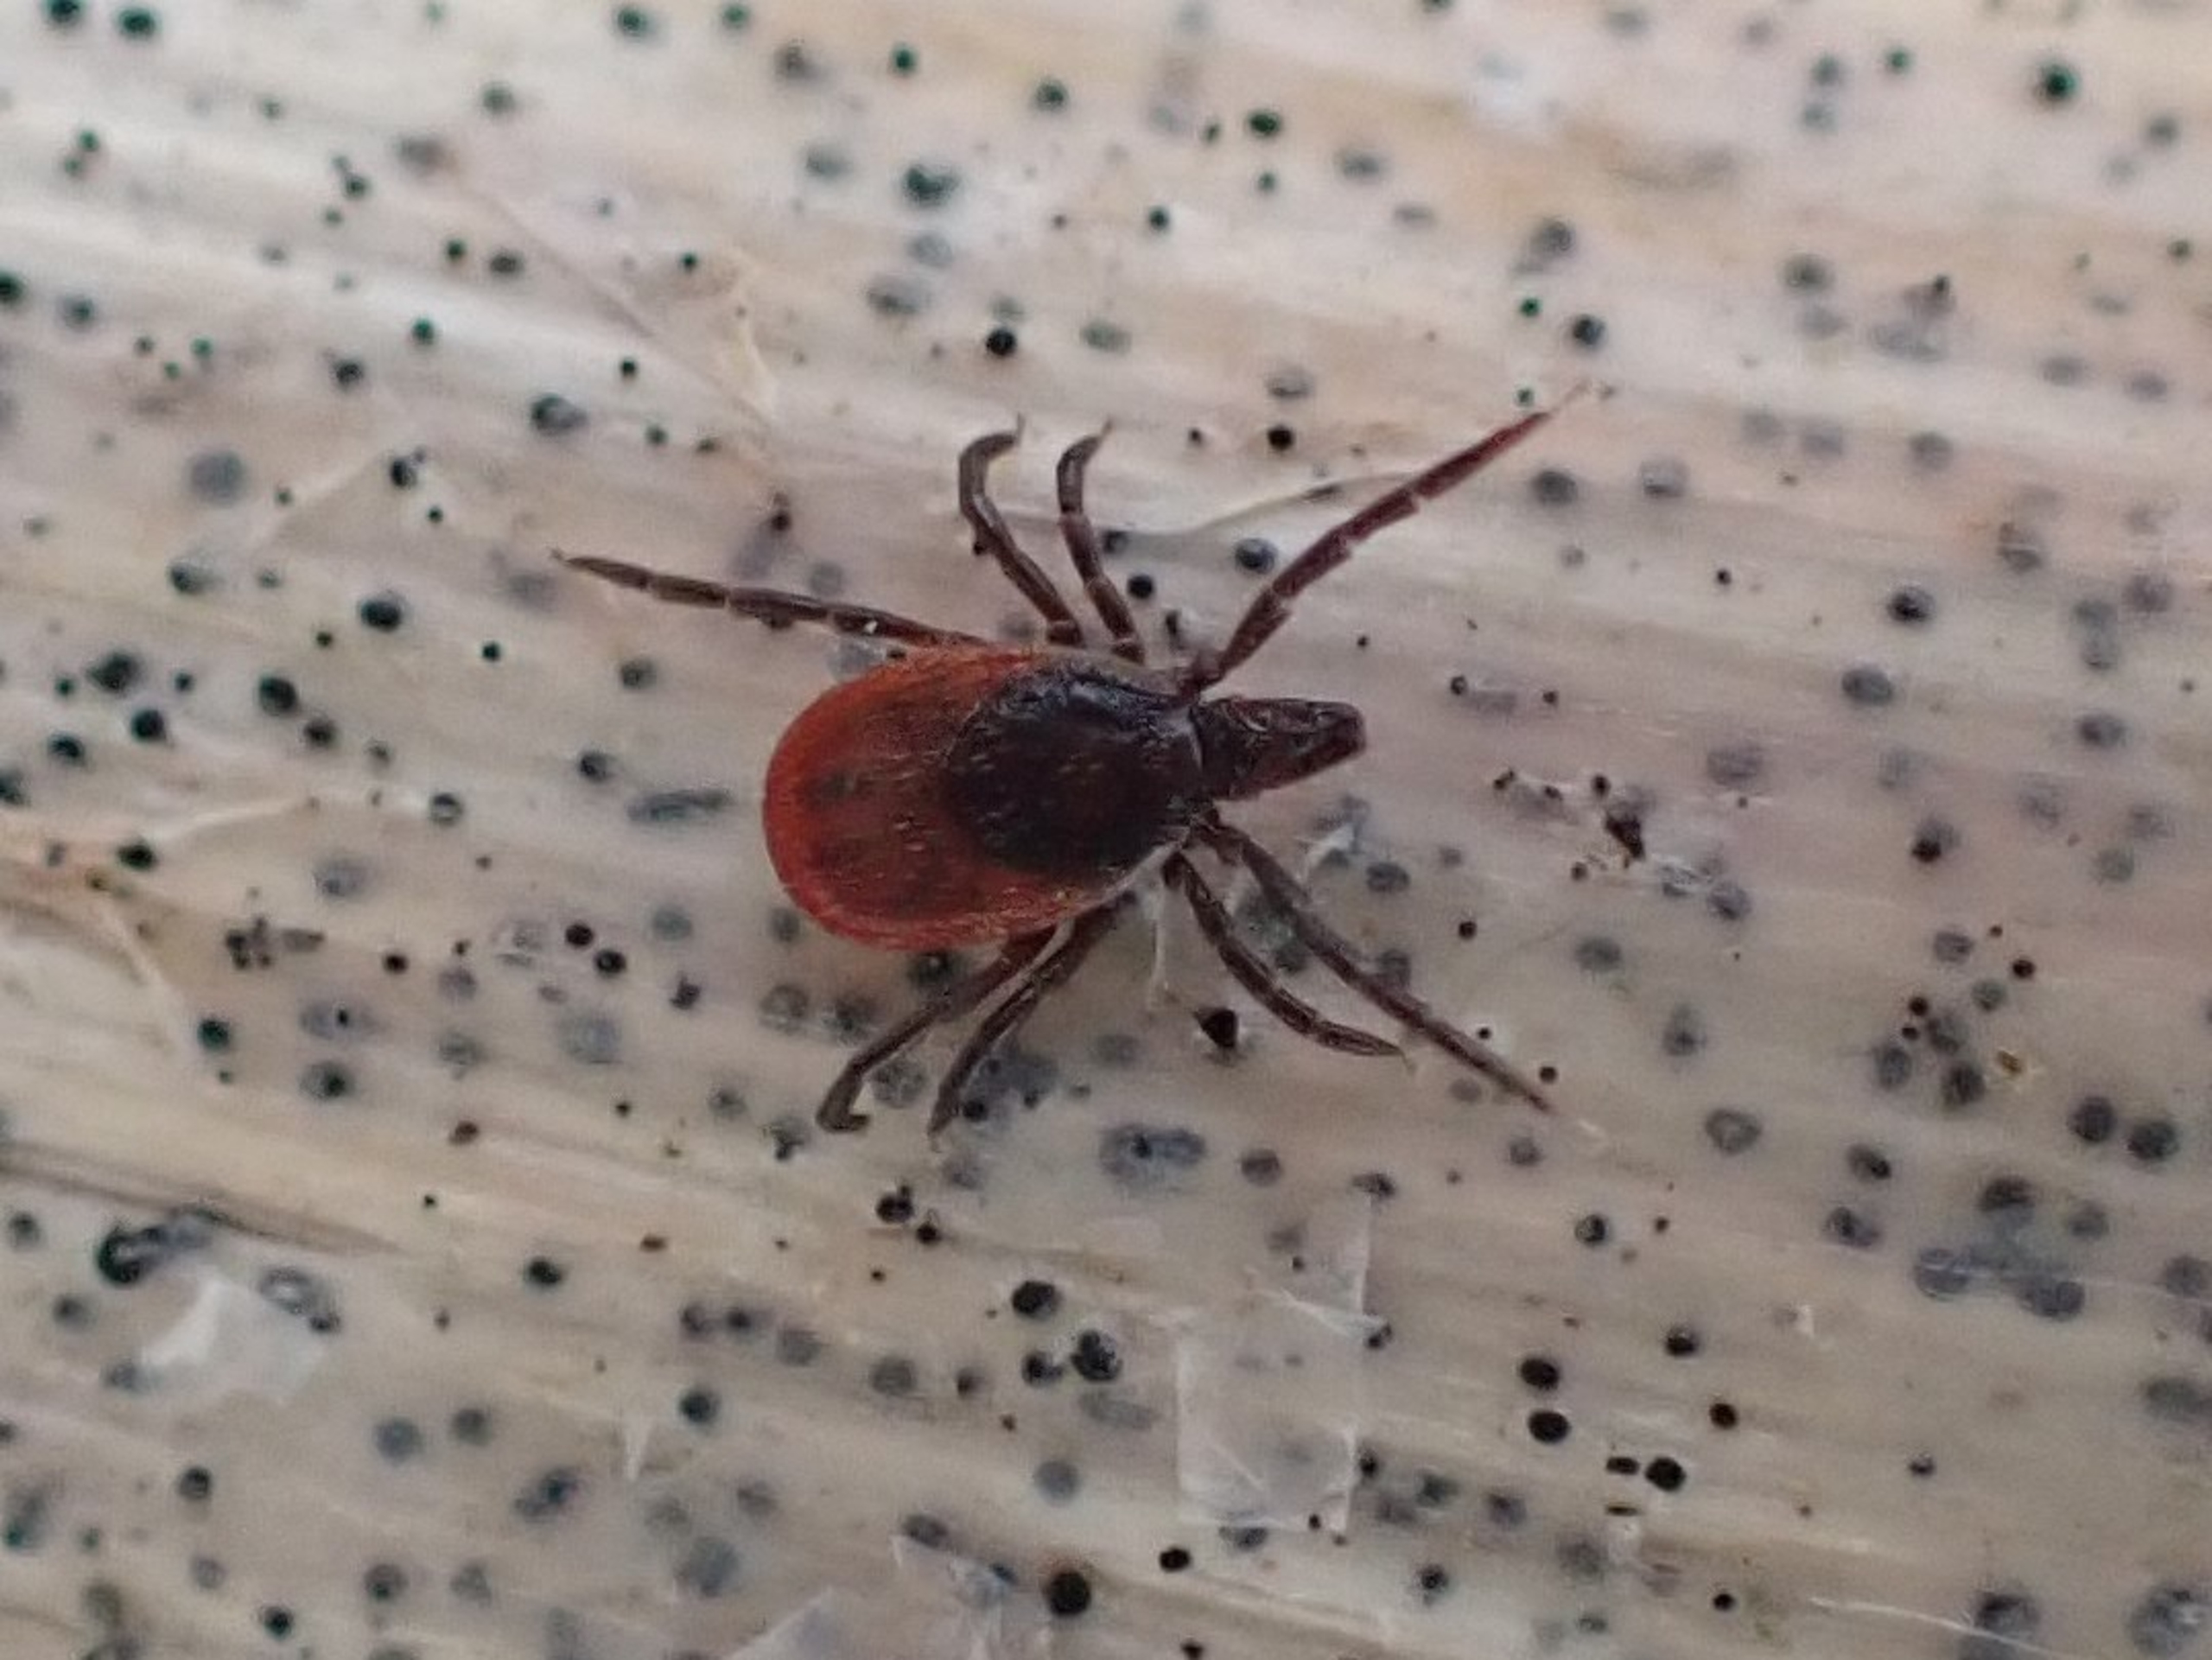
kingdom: Animalia
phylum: Arthropoda
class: Arachnida
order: Ixodida
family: Ixodidae
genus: Ixodes
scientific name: Ixodes ricinus
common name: Skovflåt
